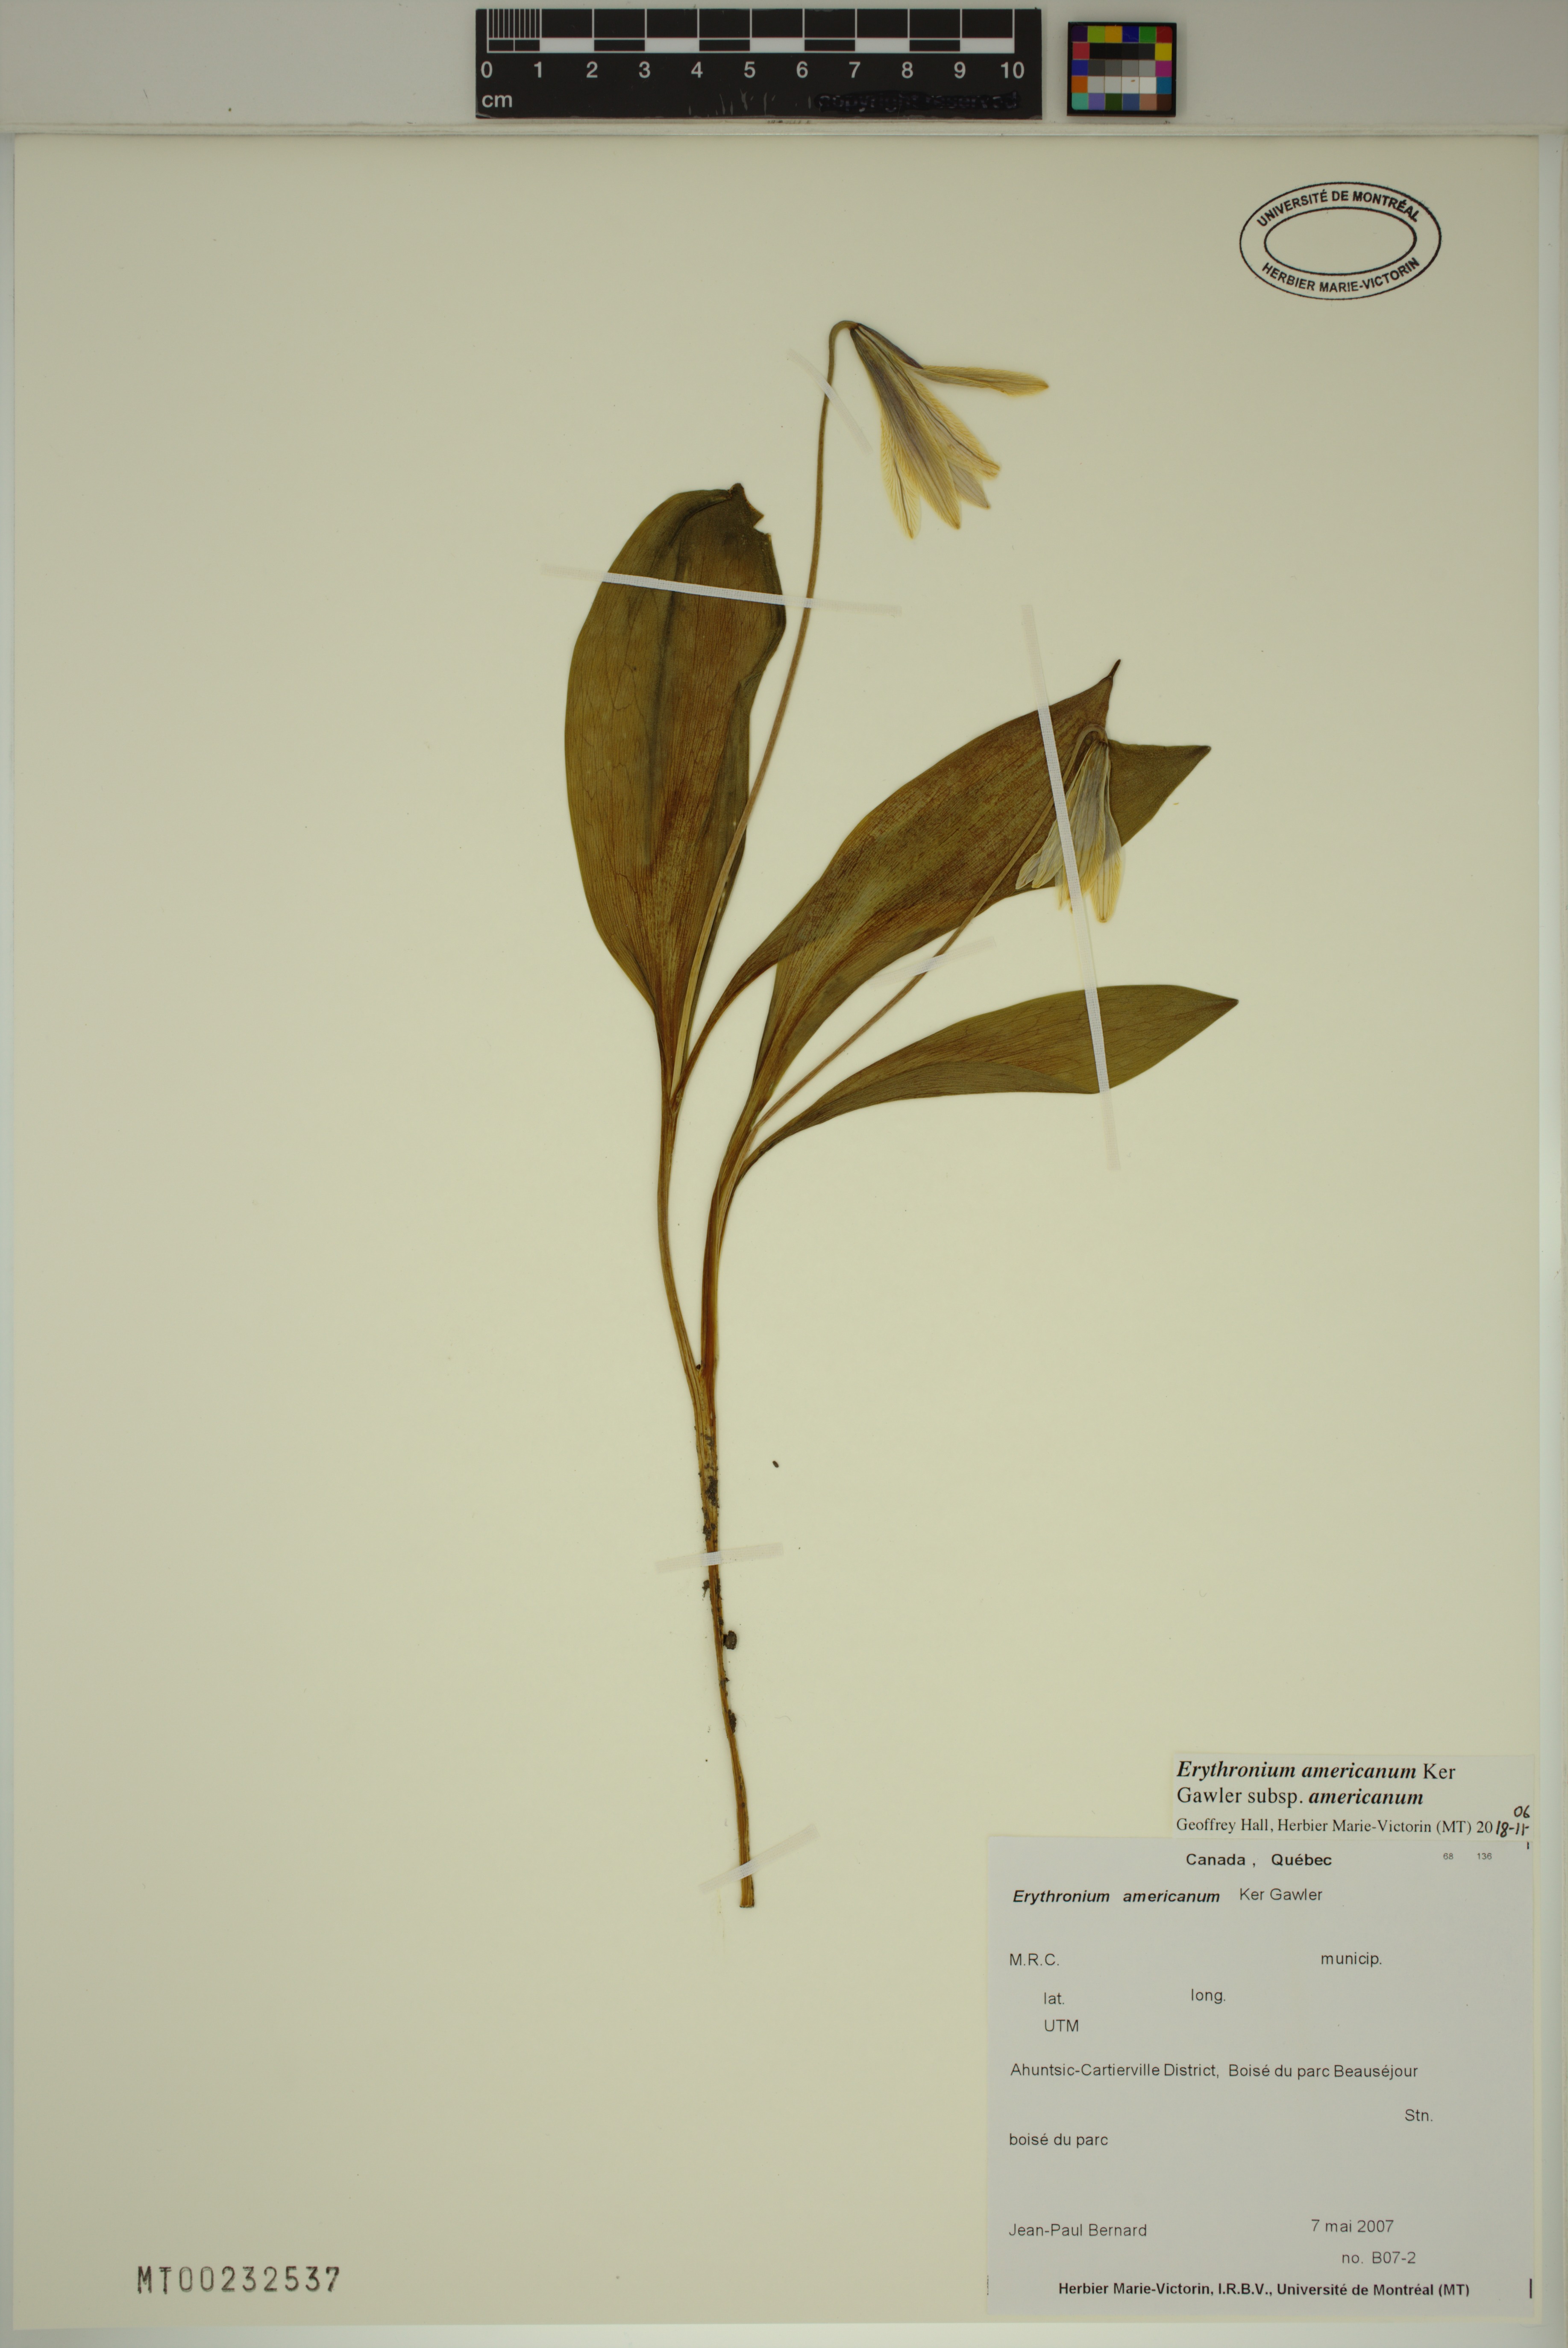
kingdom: Plantae
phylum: Tracheophyta
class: Liliopsida
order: Liliales
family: Liliaceae
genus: Erythronium
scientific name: Erythronium americanum
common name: Yellow adder's-tongue
